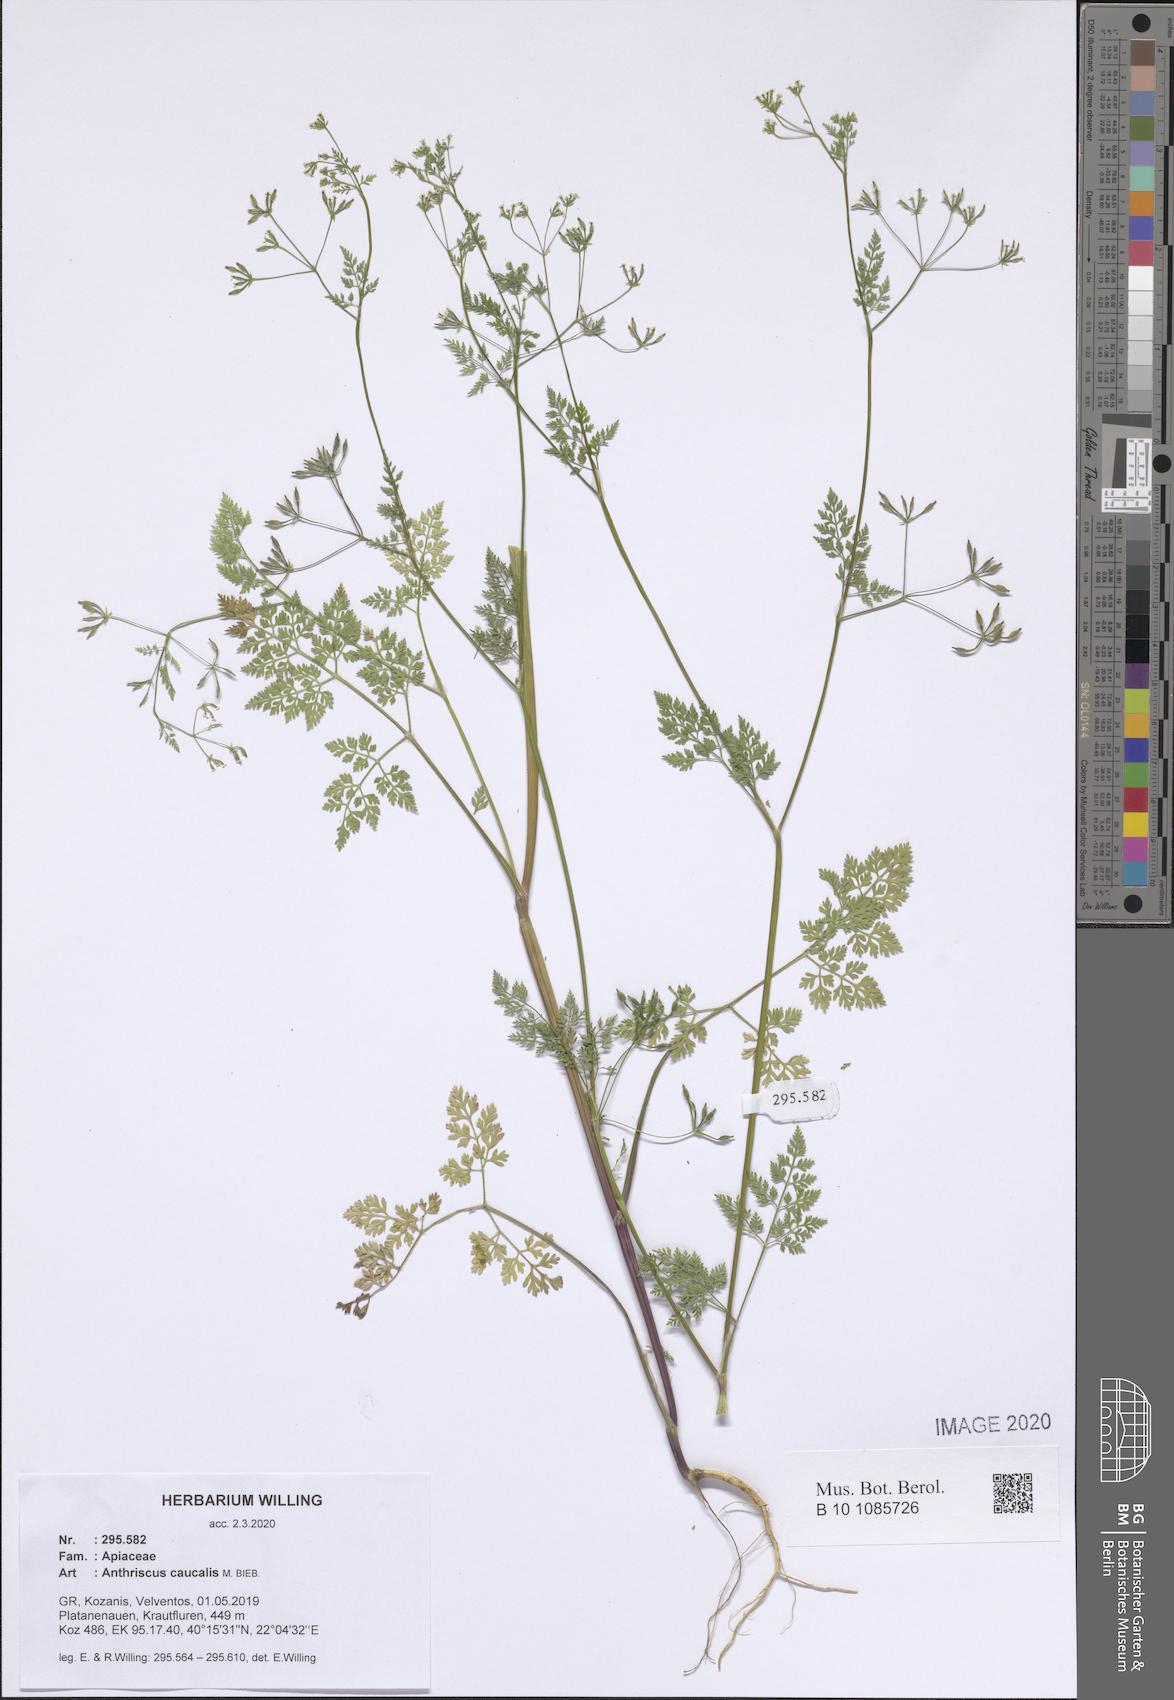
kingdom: Plantae
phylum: Tracheophyta
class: Magnoliopsida
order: Apiales
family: Apiaceae
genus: Anthriscus
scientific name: Anthriscus caucalis
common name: Bur chervil
